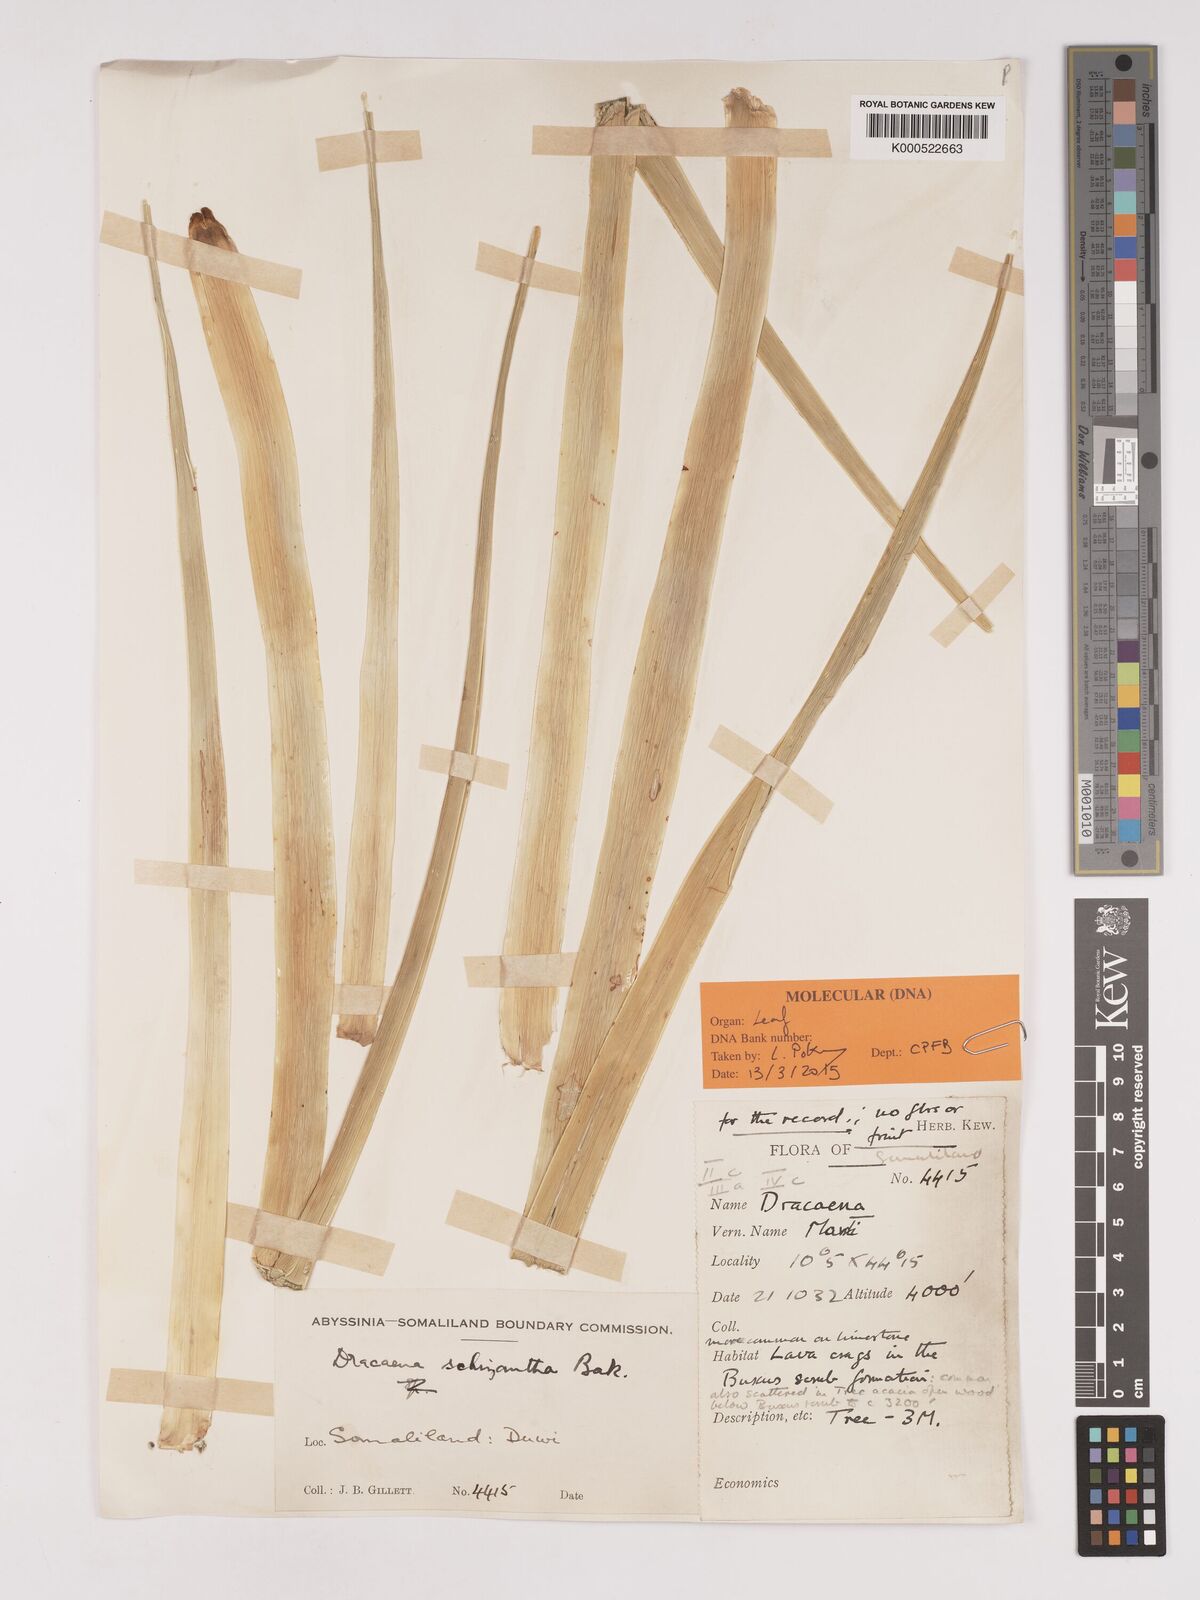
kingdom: Plantae
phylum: Tracheophyta
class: Liliopsida
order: Asparagales
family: Asparagaceae
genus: Dracaena
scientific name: Dracaena ombet
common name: Gabal elba dragon tree
